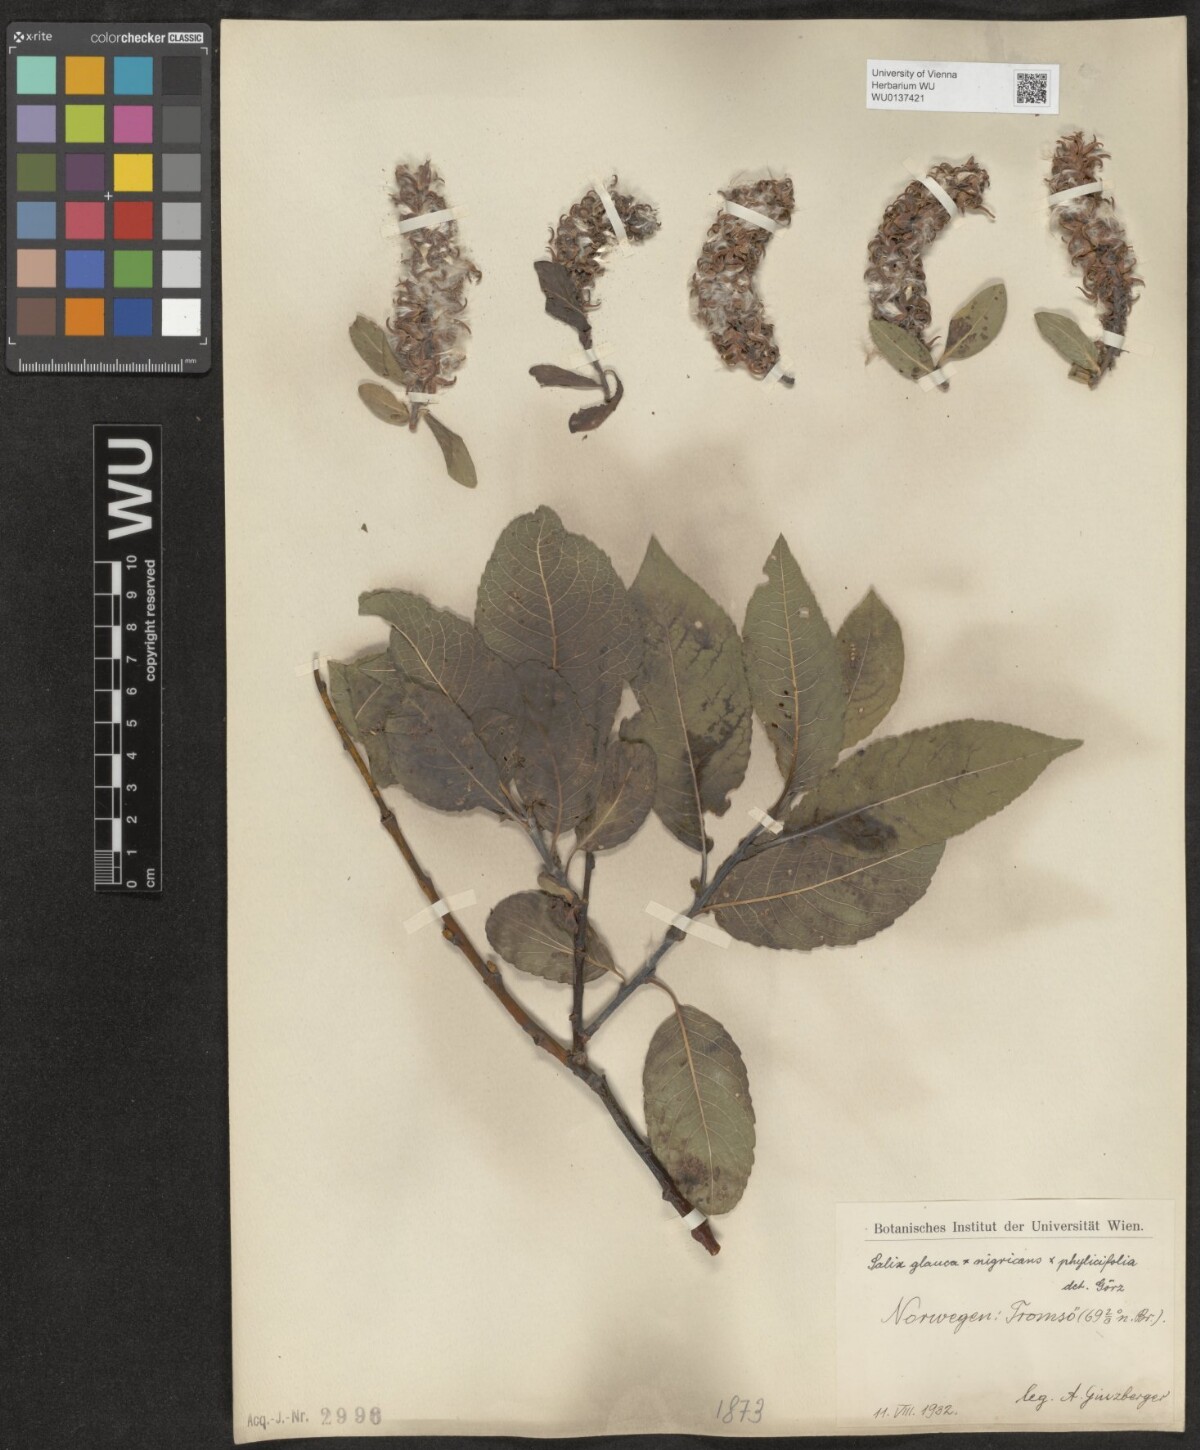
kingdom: Plantae
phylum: Tracheophyta
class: Magnoliopsida
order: Malpighiales
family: Salicaceae
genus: Salix
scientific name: Salix
